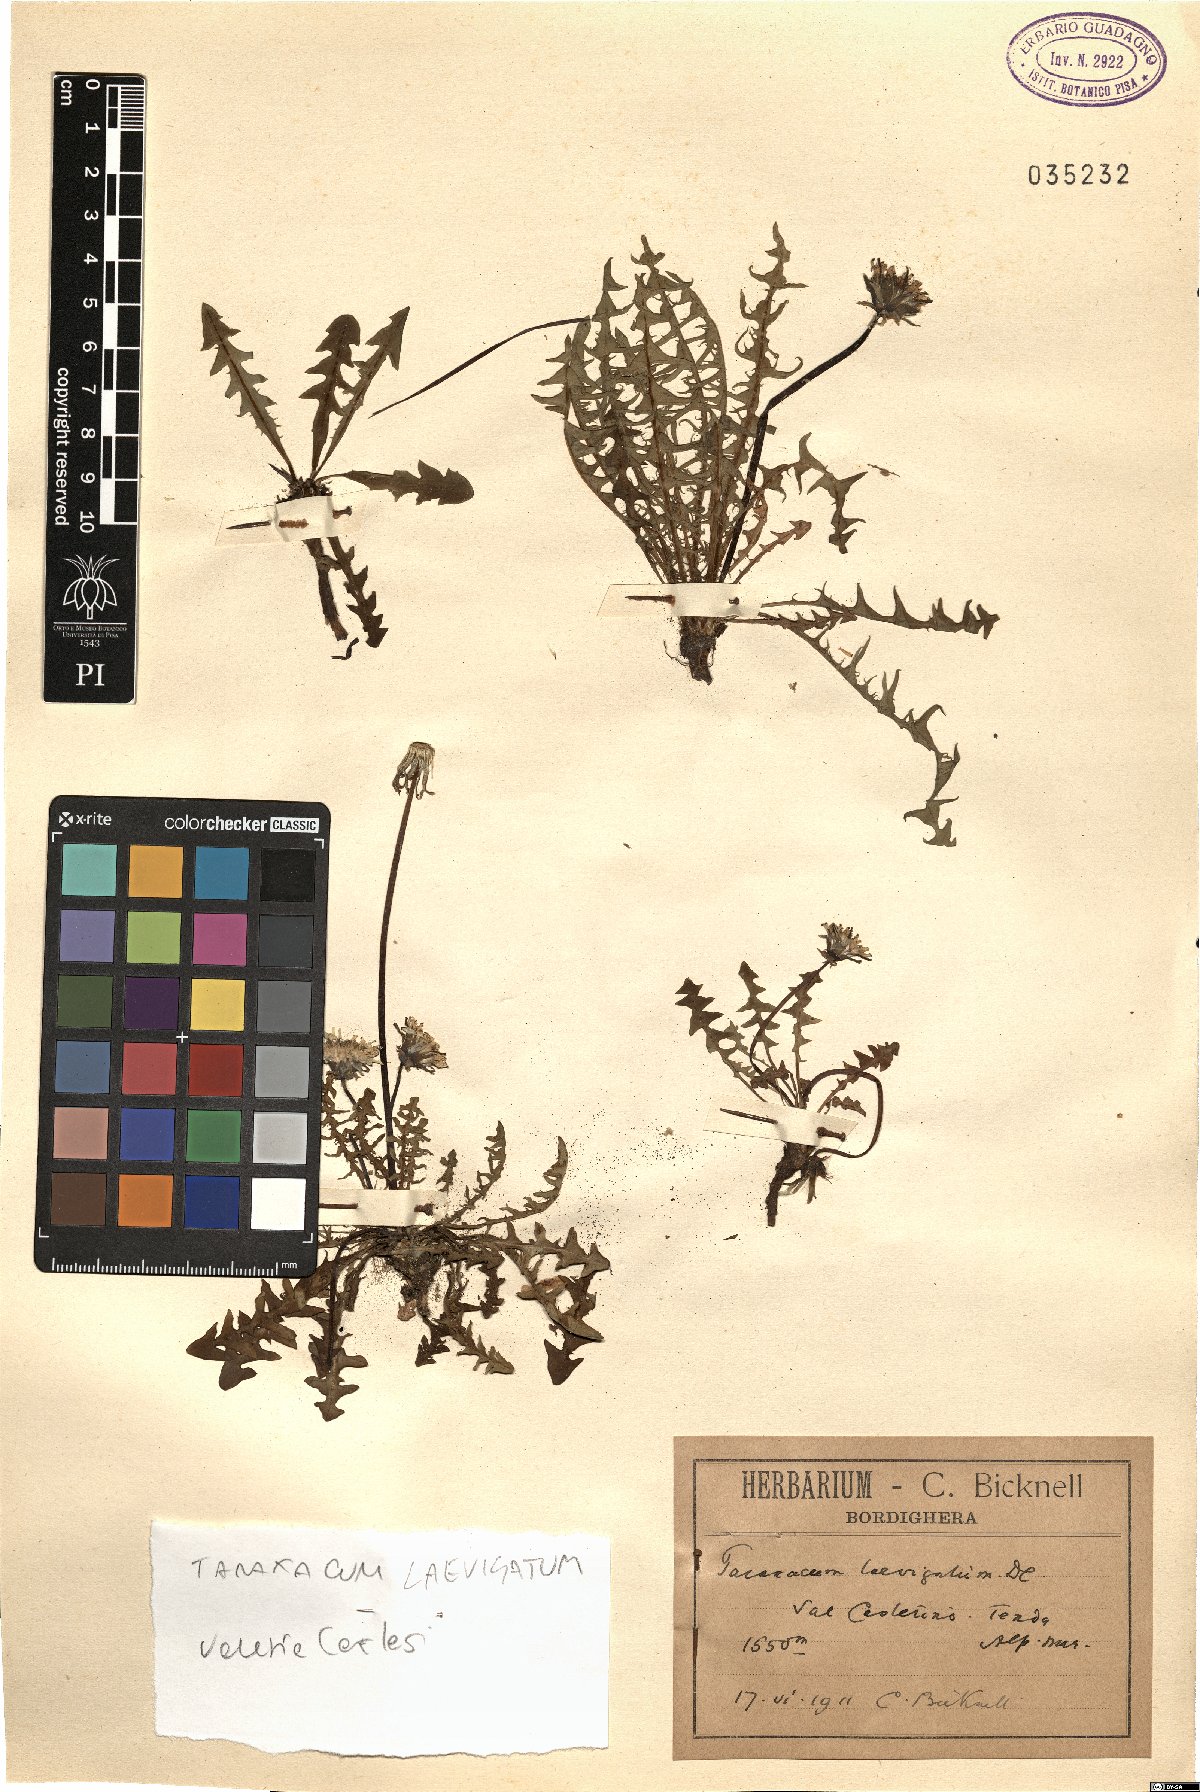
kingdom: Plantae
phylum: Tracheophyta
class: Magnoliopsida
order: Asterales
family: Asteraceae
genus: Taraxacum
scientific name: Taraxacum erythrospermum
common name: Rock dandelion
